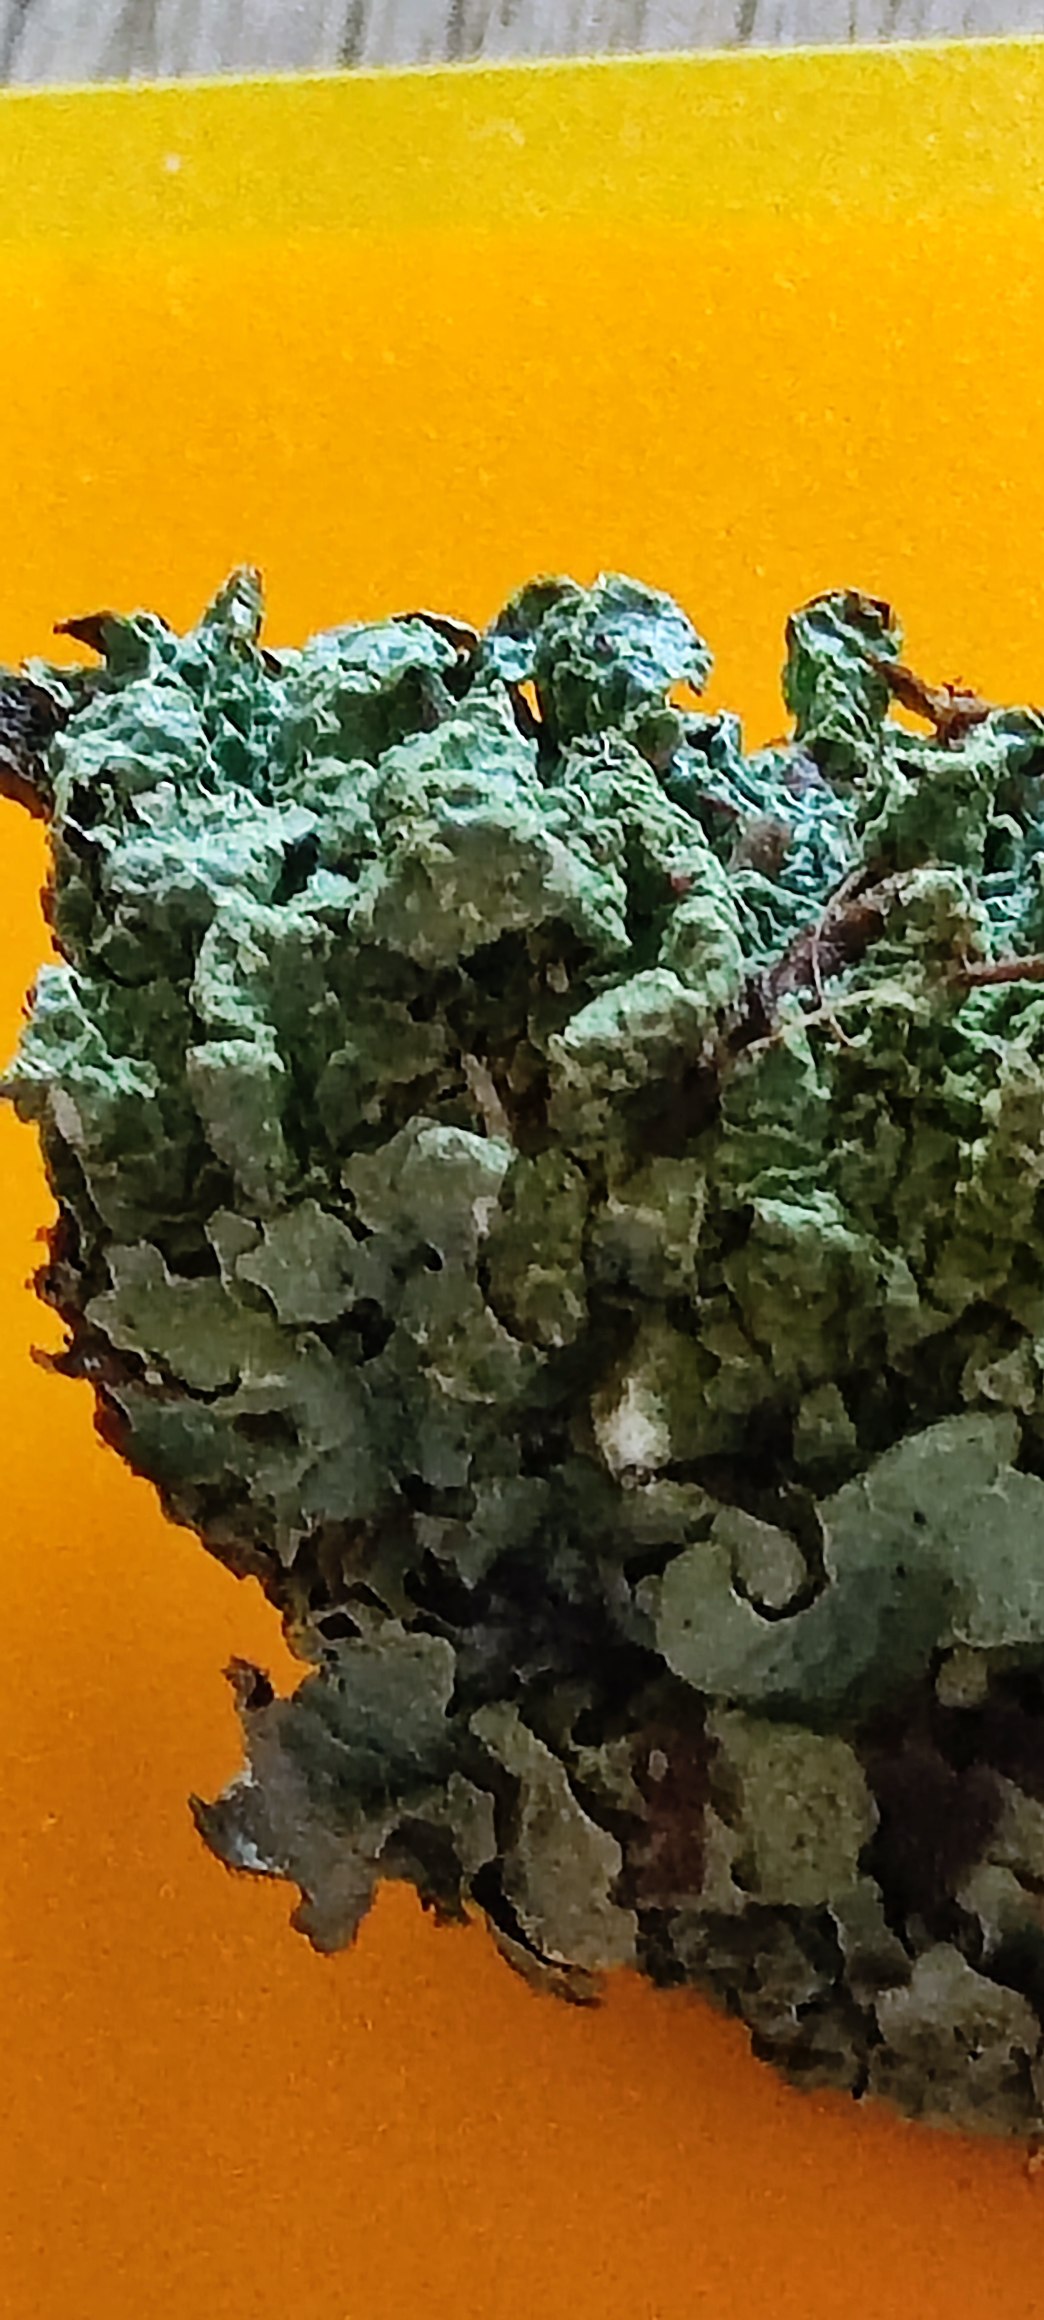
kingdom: Fungi
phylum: Ascomycota
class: Lecanoromycetes
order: Lecanorales
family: Parmeliaceae
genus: Parmelia
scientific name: Parmelia sulcata
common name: Rynket skållav
